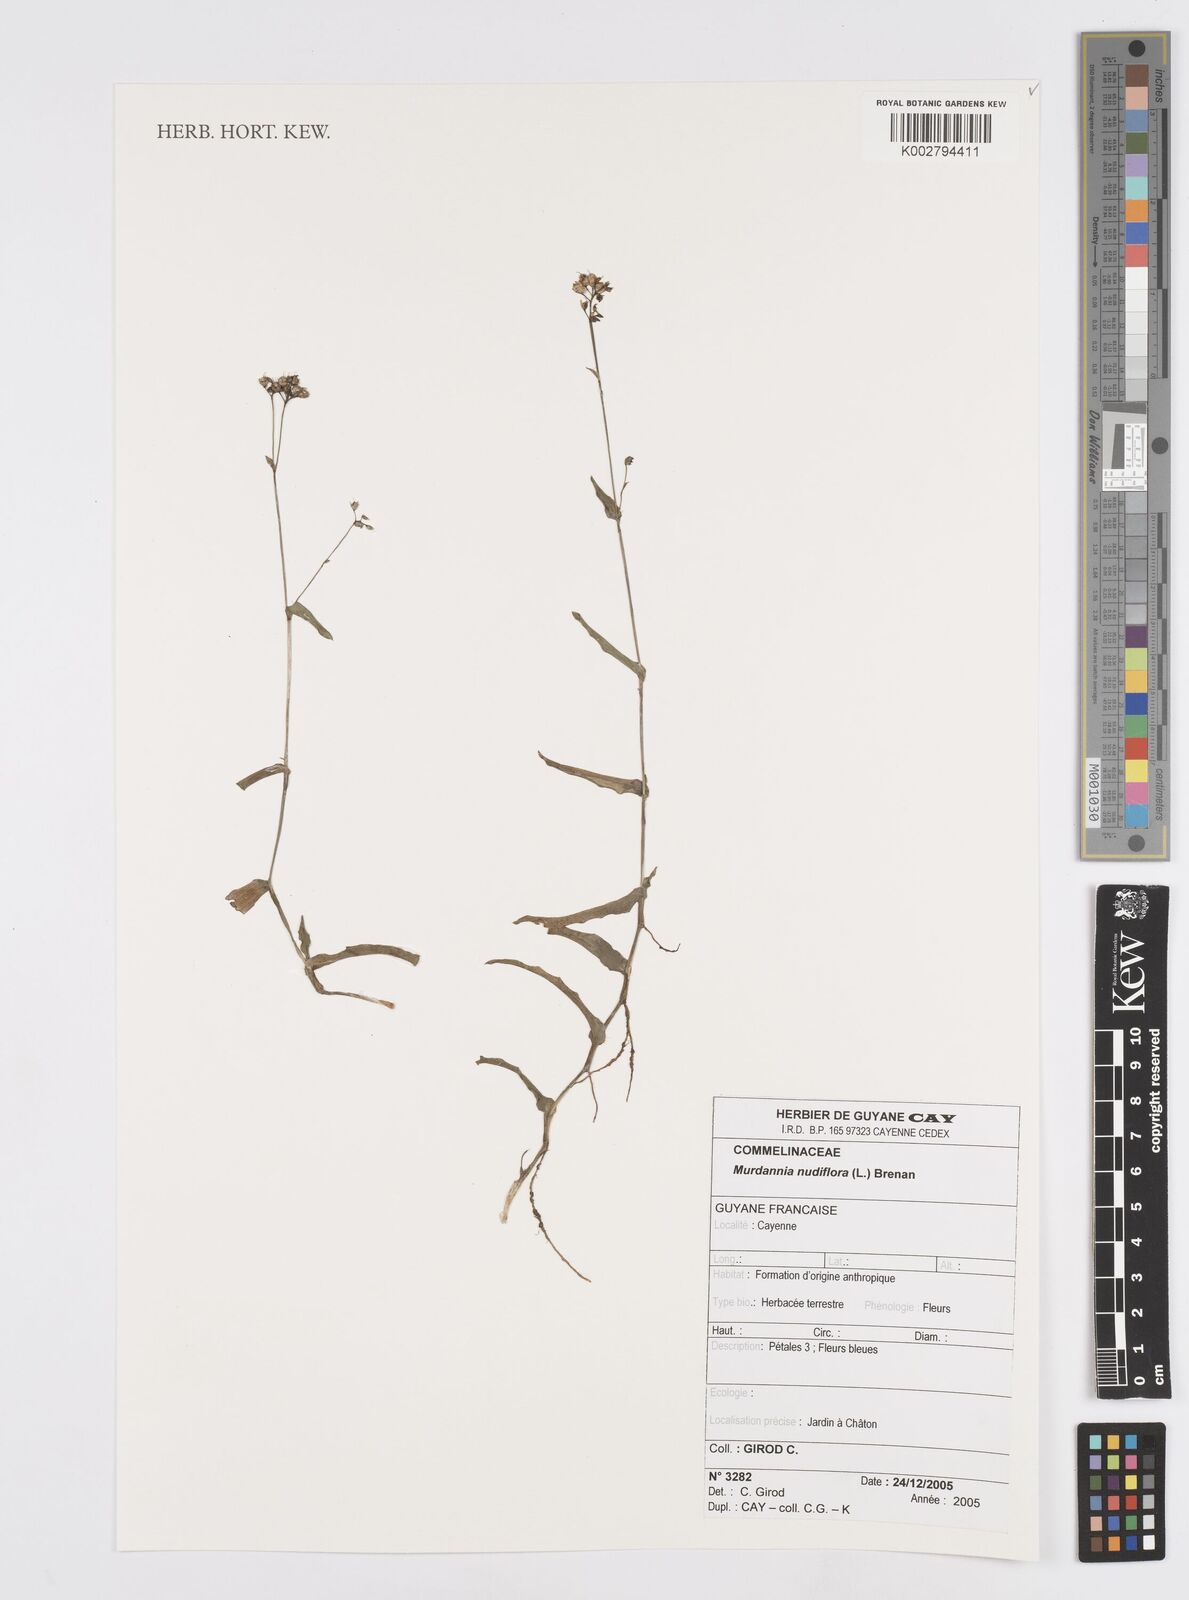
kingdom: Plantae
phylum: Tracheophyta
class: Liliopsida
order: Commelinales
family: Commelinaceae
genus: Murdannia
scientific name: Murdannia nudiflora
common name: Nakedstem dewflower
